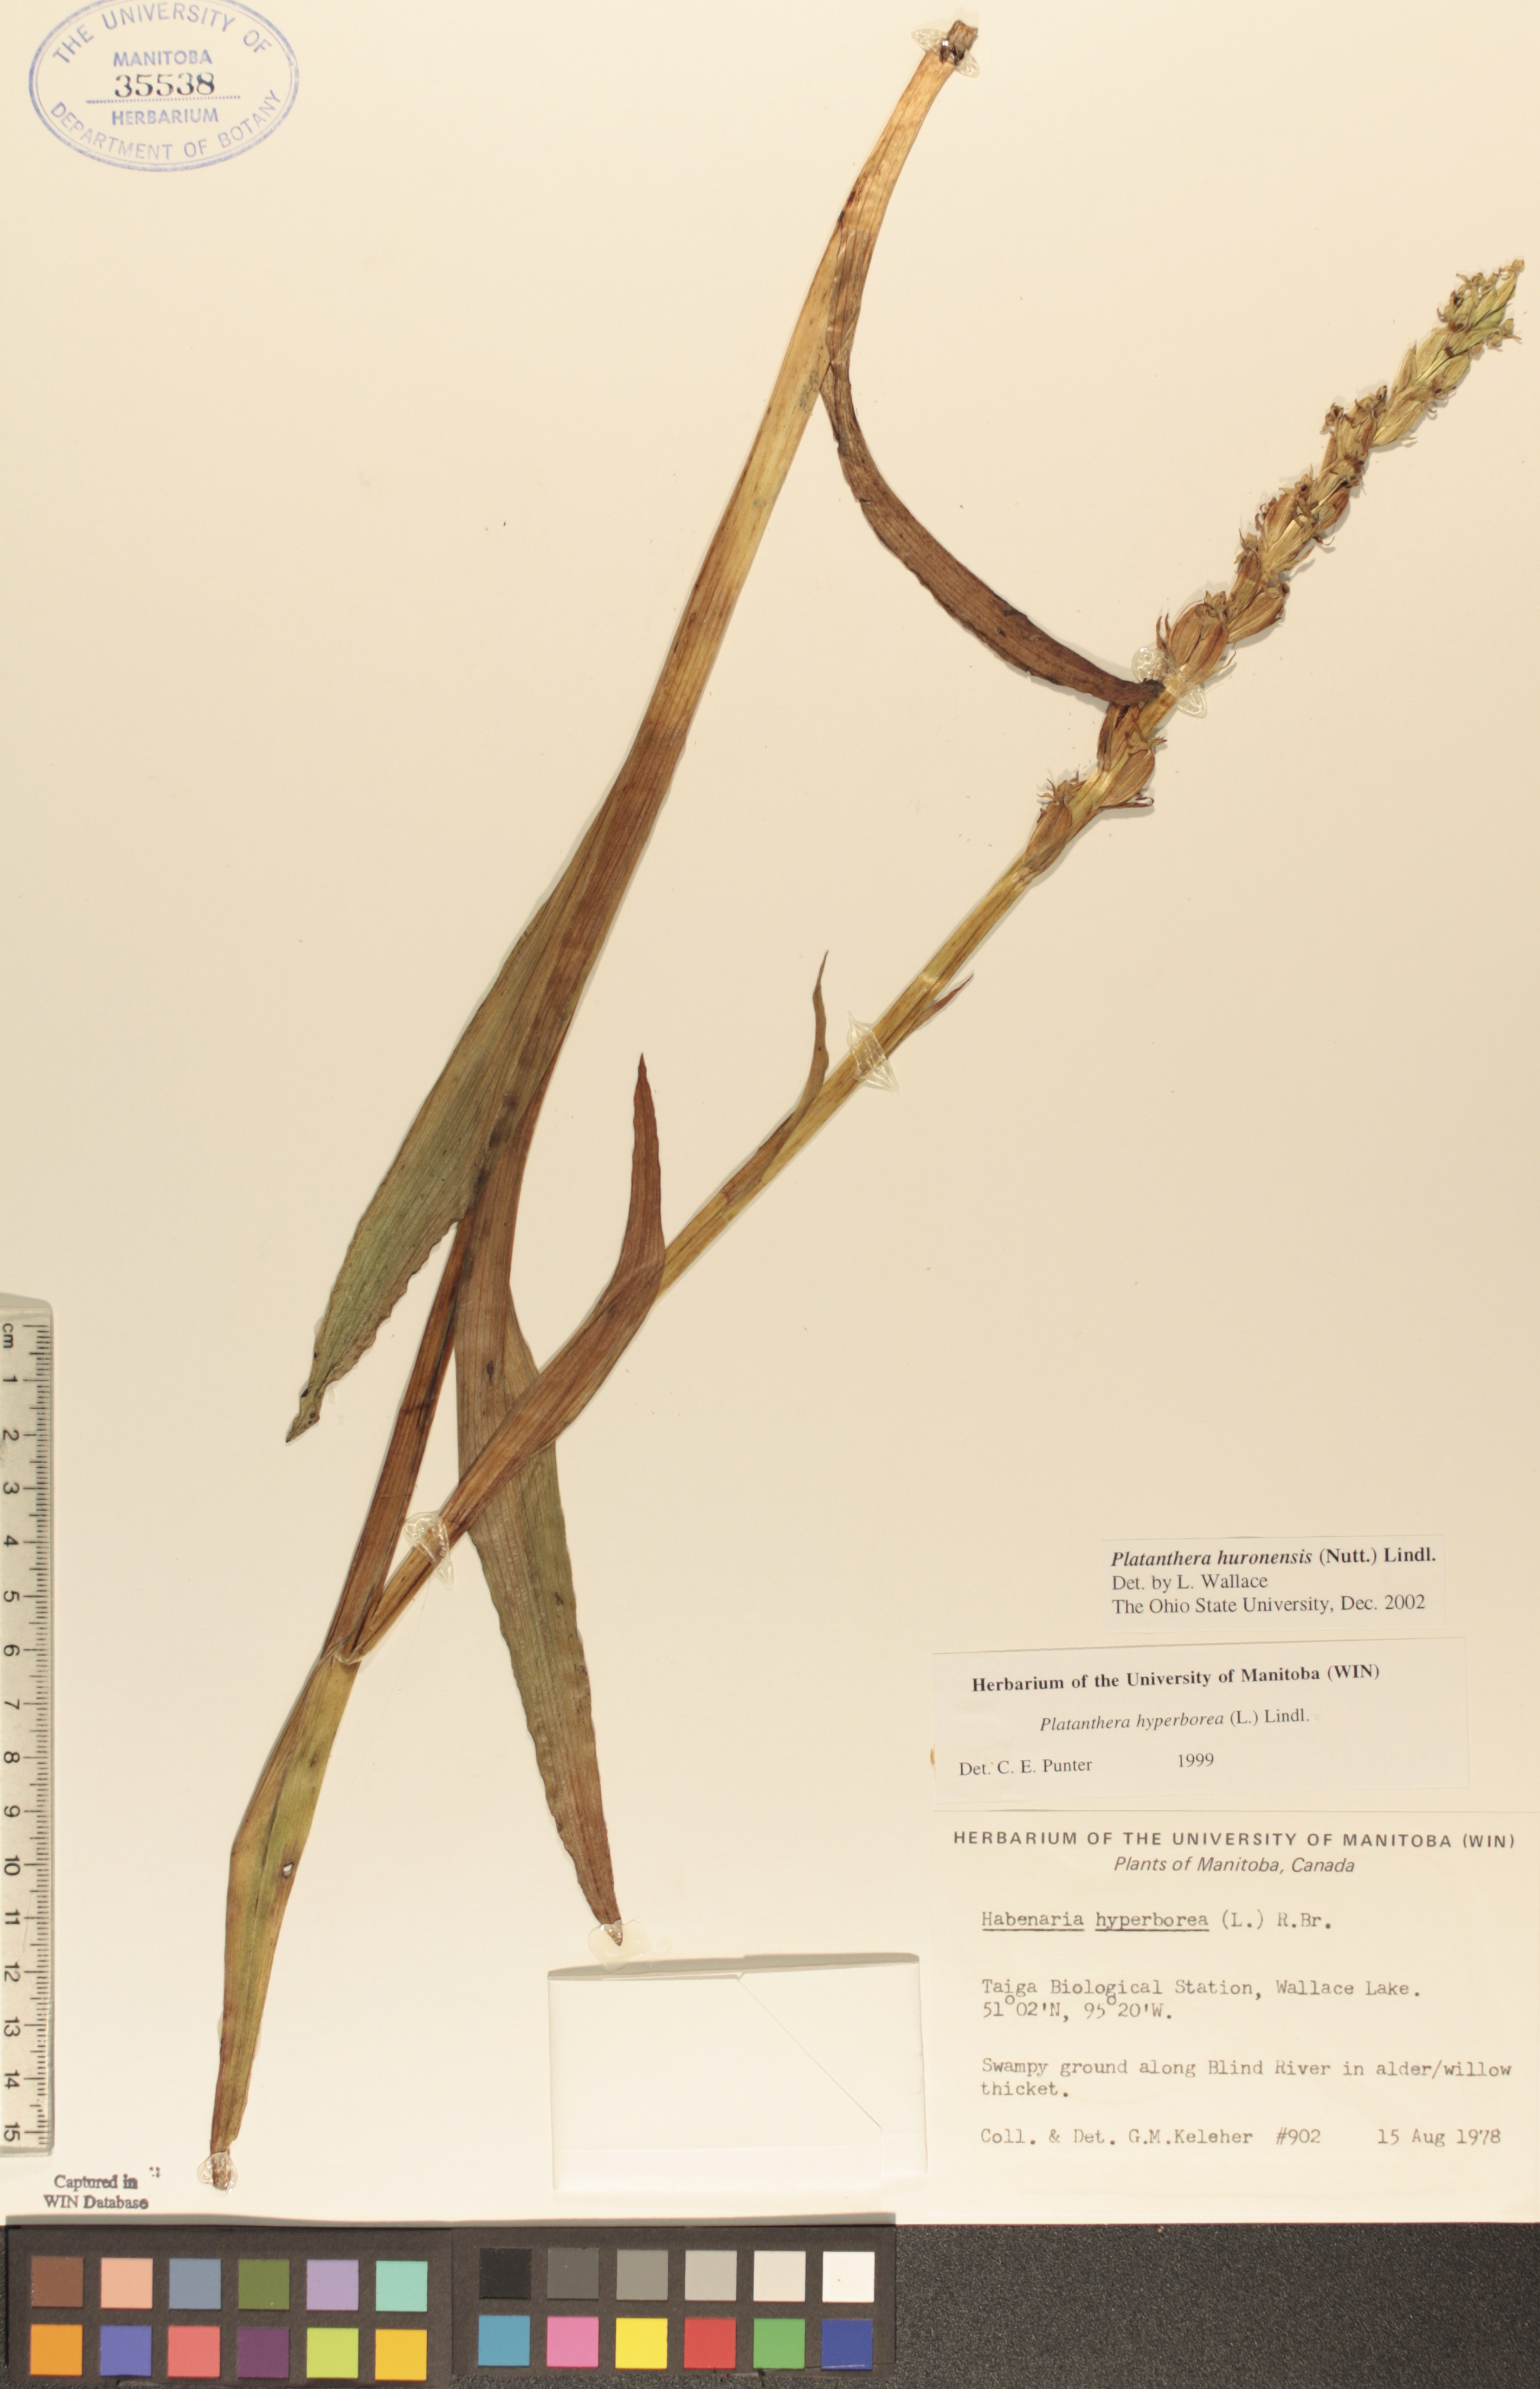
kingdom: Plantae
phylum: Tracheophyta
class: Liliopsida
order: Asparagales
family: Orchidaceae
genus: Platanthera
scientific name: Platanthera huronensis
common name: Fragrant green orchid
